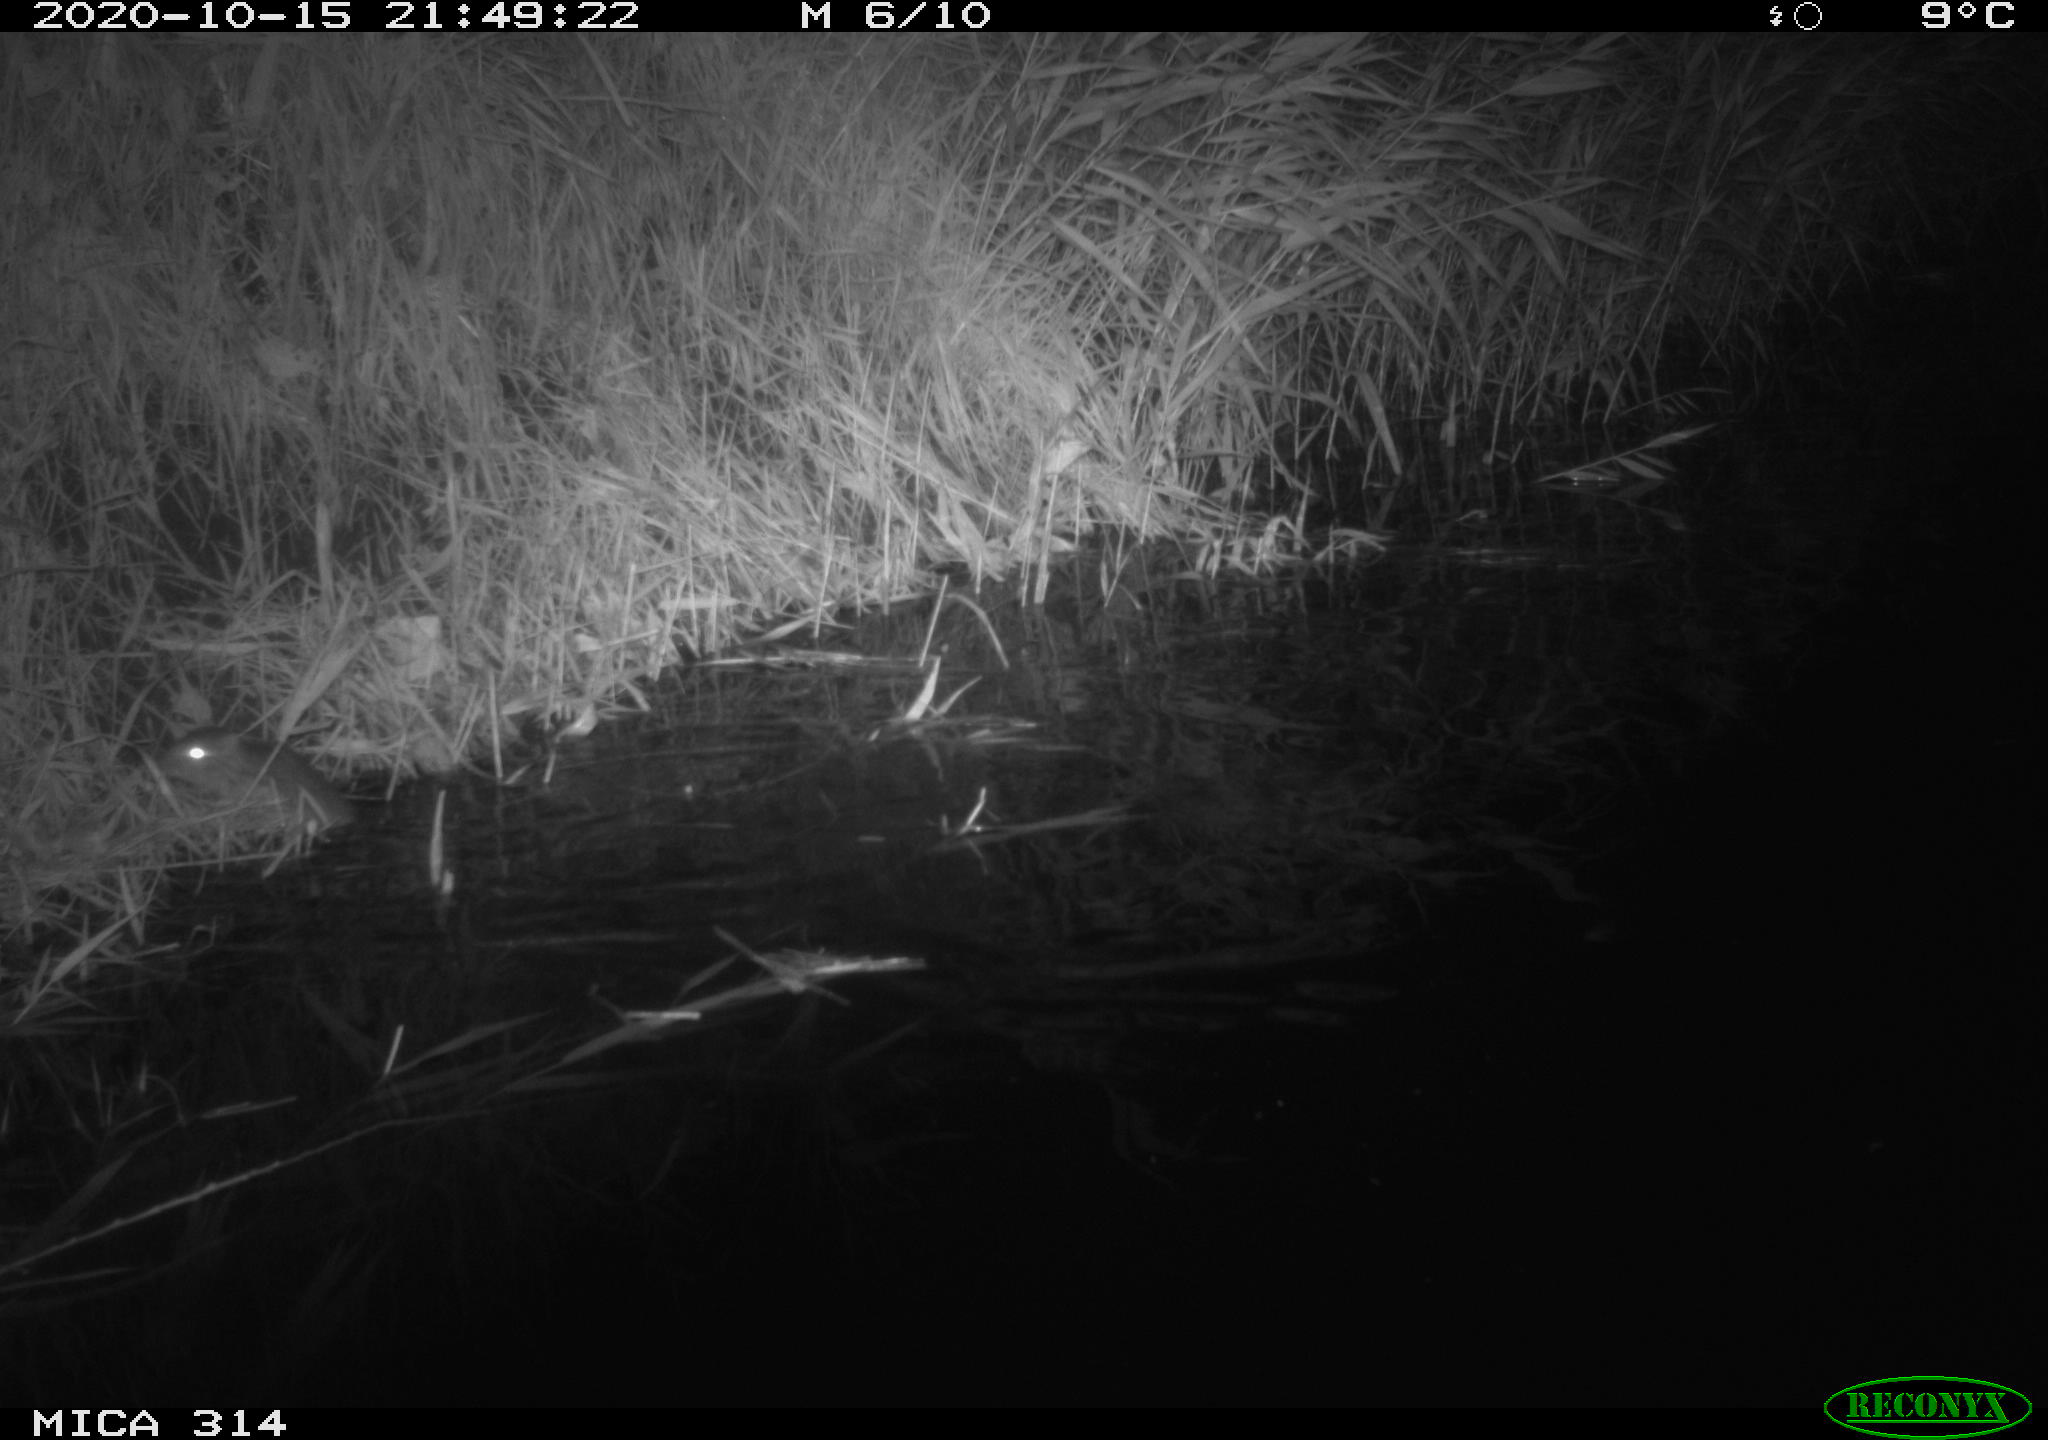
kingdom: Animalia
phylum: Chordata
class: Mammalia
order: Rodentia
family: Muridae
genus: Rattus
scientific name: Rattus norvegicus
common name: Brown rat
